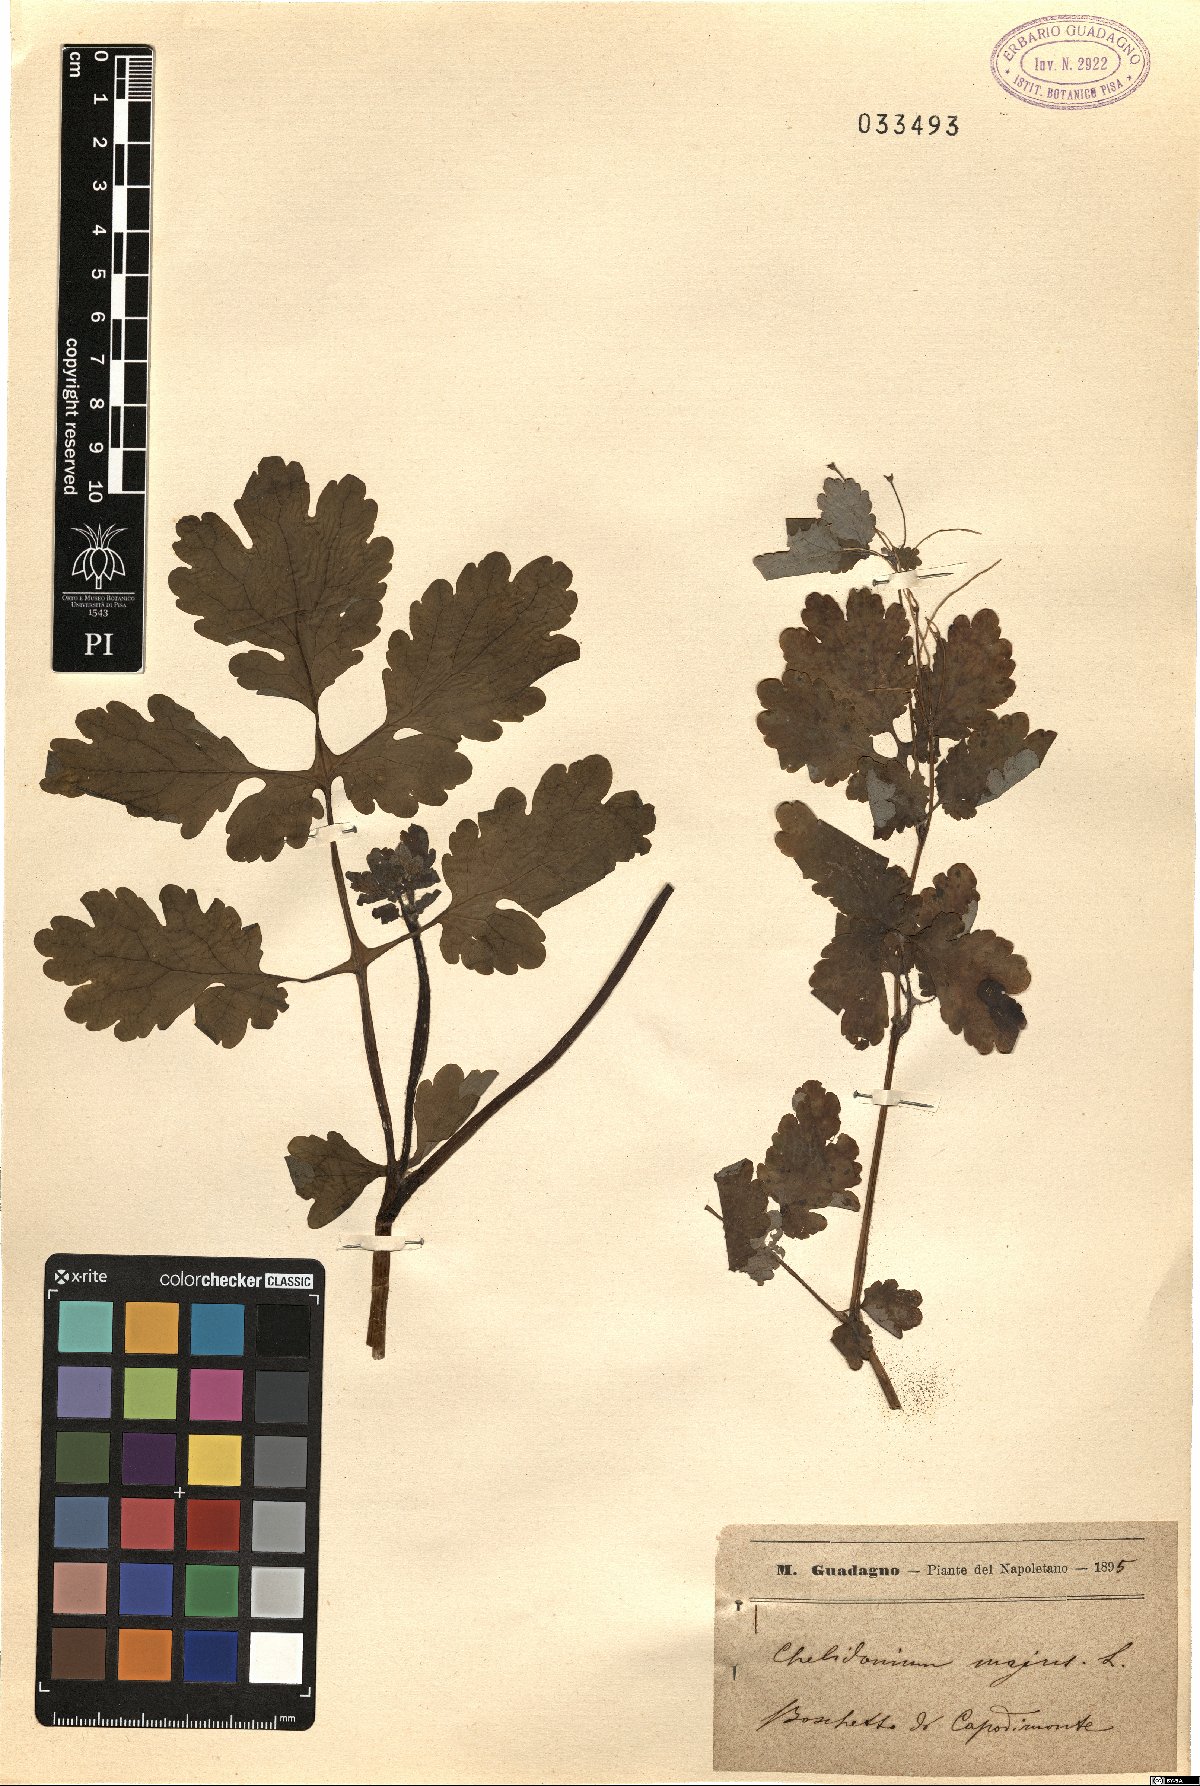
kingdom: Plantae
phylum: Tracheophyta
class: Magnoliopsida
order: Ranunculales
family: Papaveraceae
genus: Chelidonium
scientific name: Chelidonium majus
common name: Greater celandine
